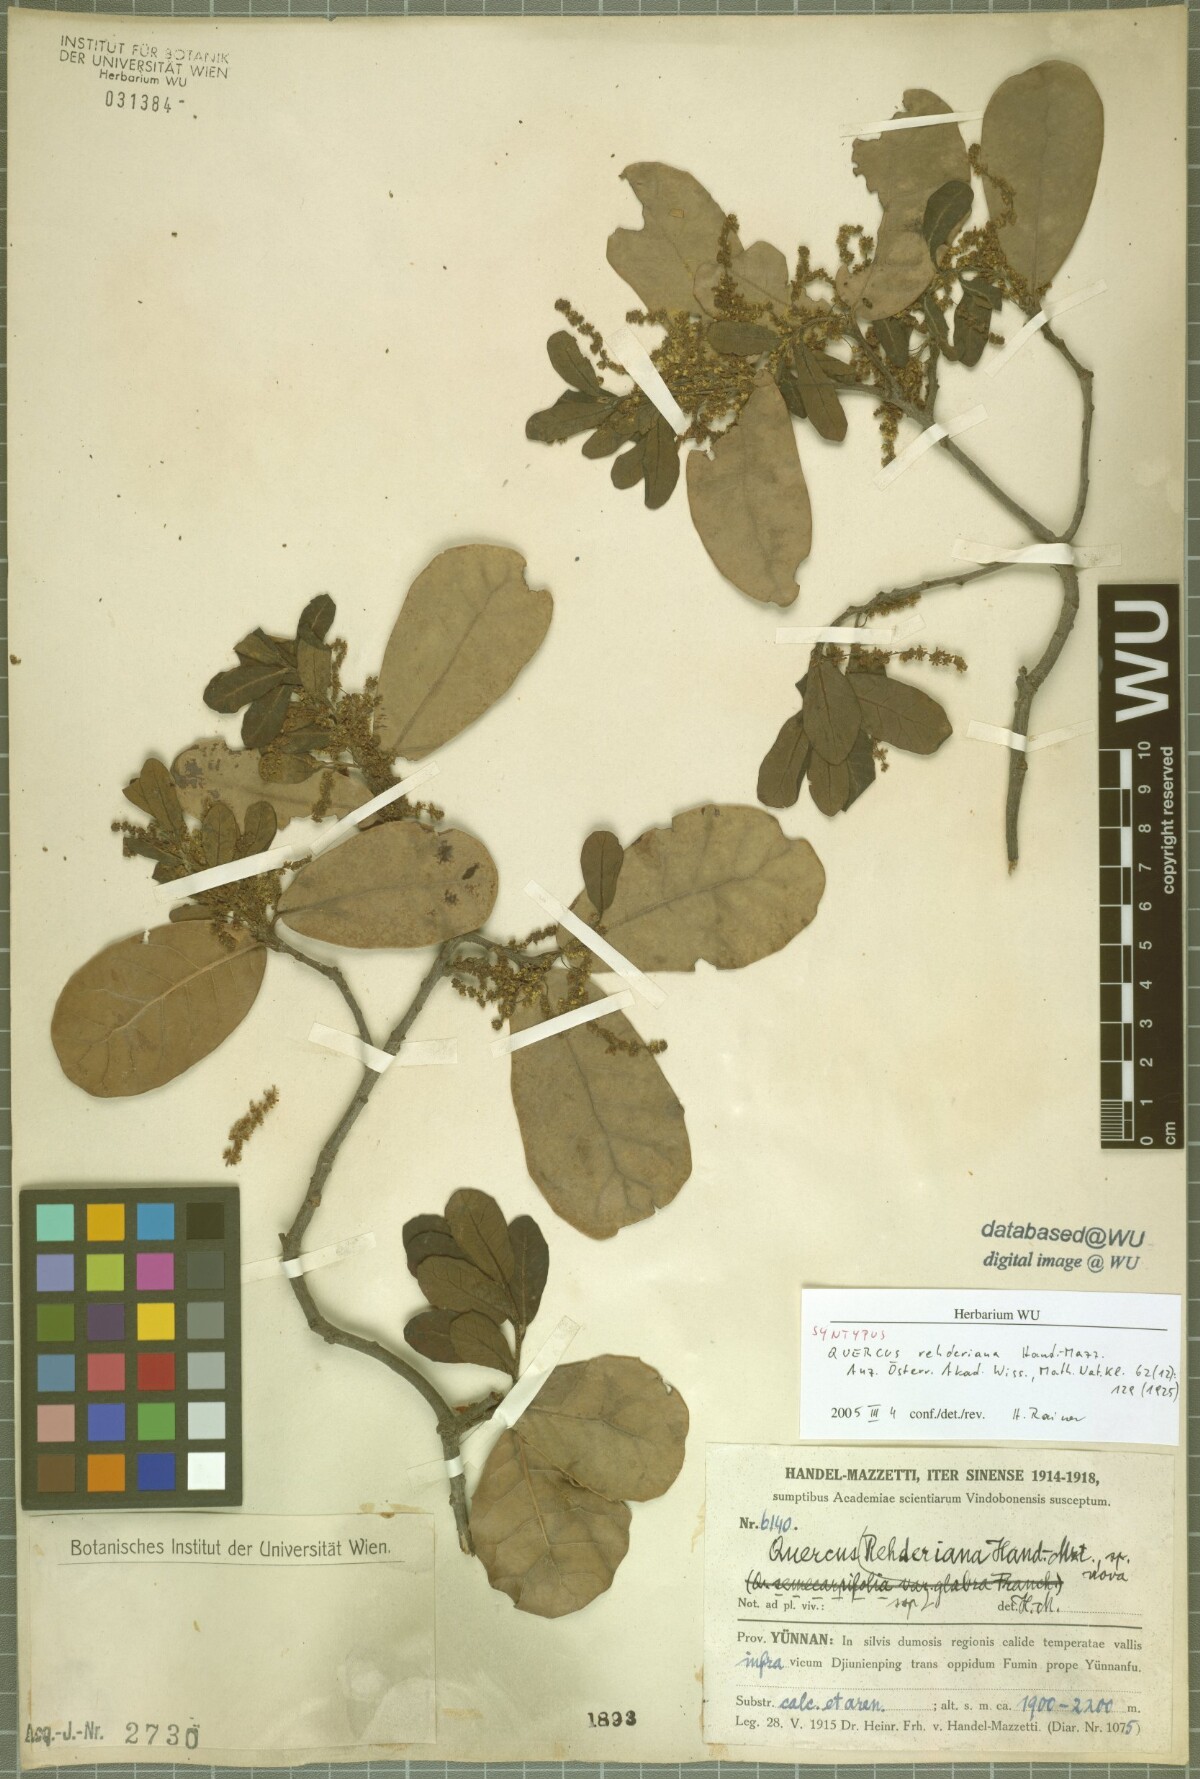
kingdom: Plantae
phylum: Tracheophyta
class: Magnoliopsida
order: Fagales
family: Fagaceae
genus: Quercus
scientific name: Quercus rehderiana
